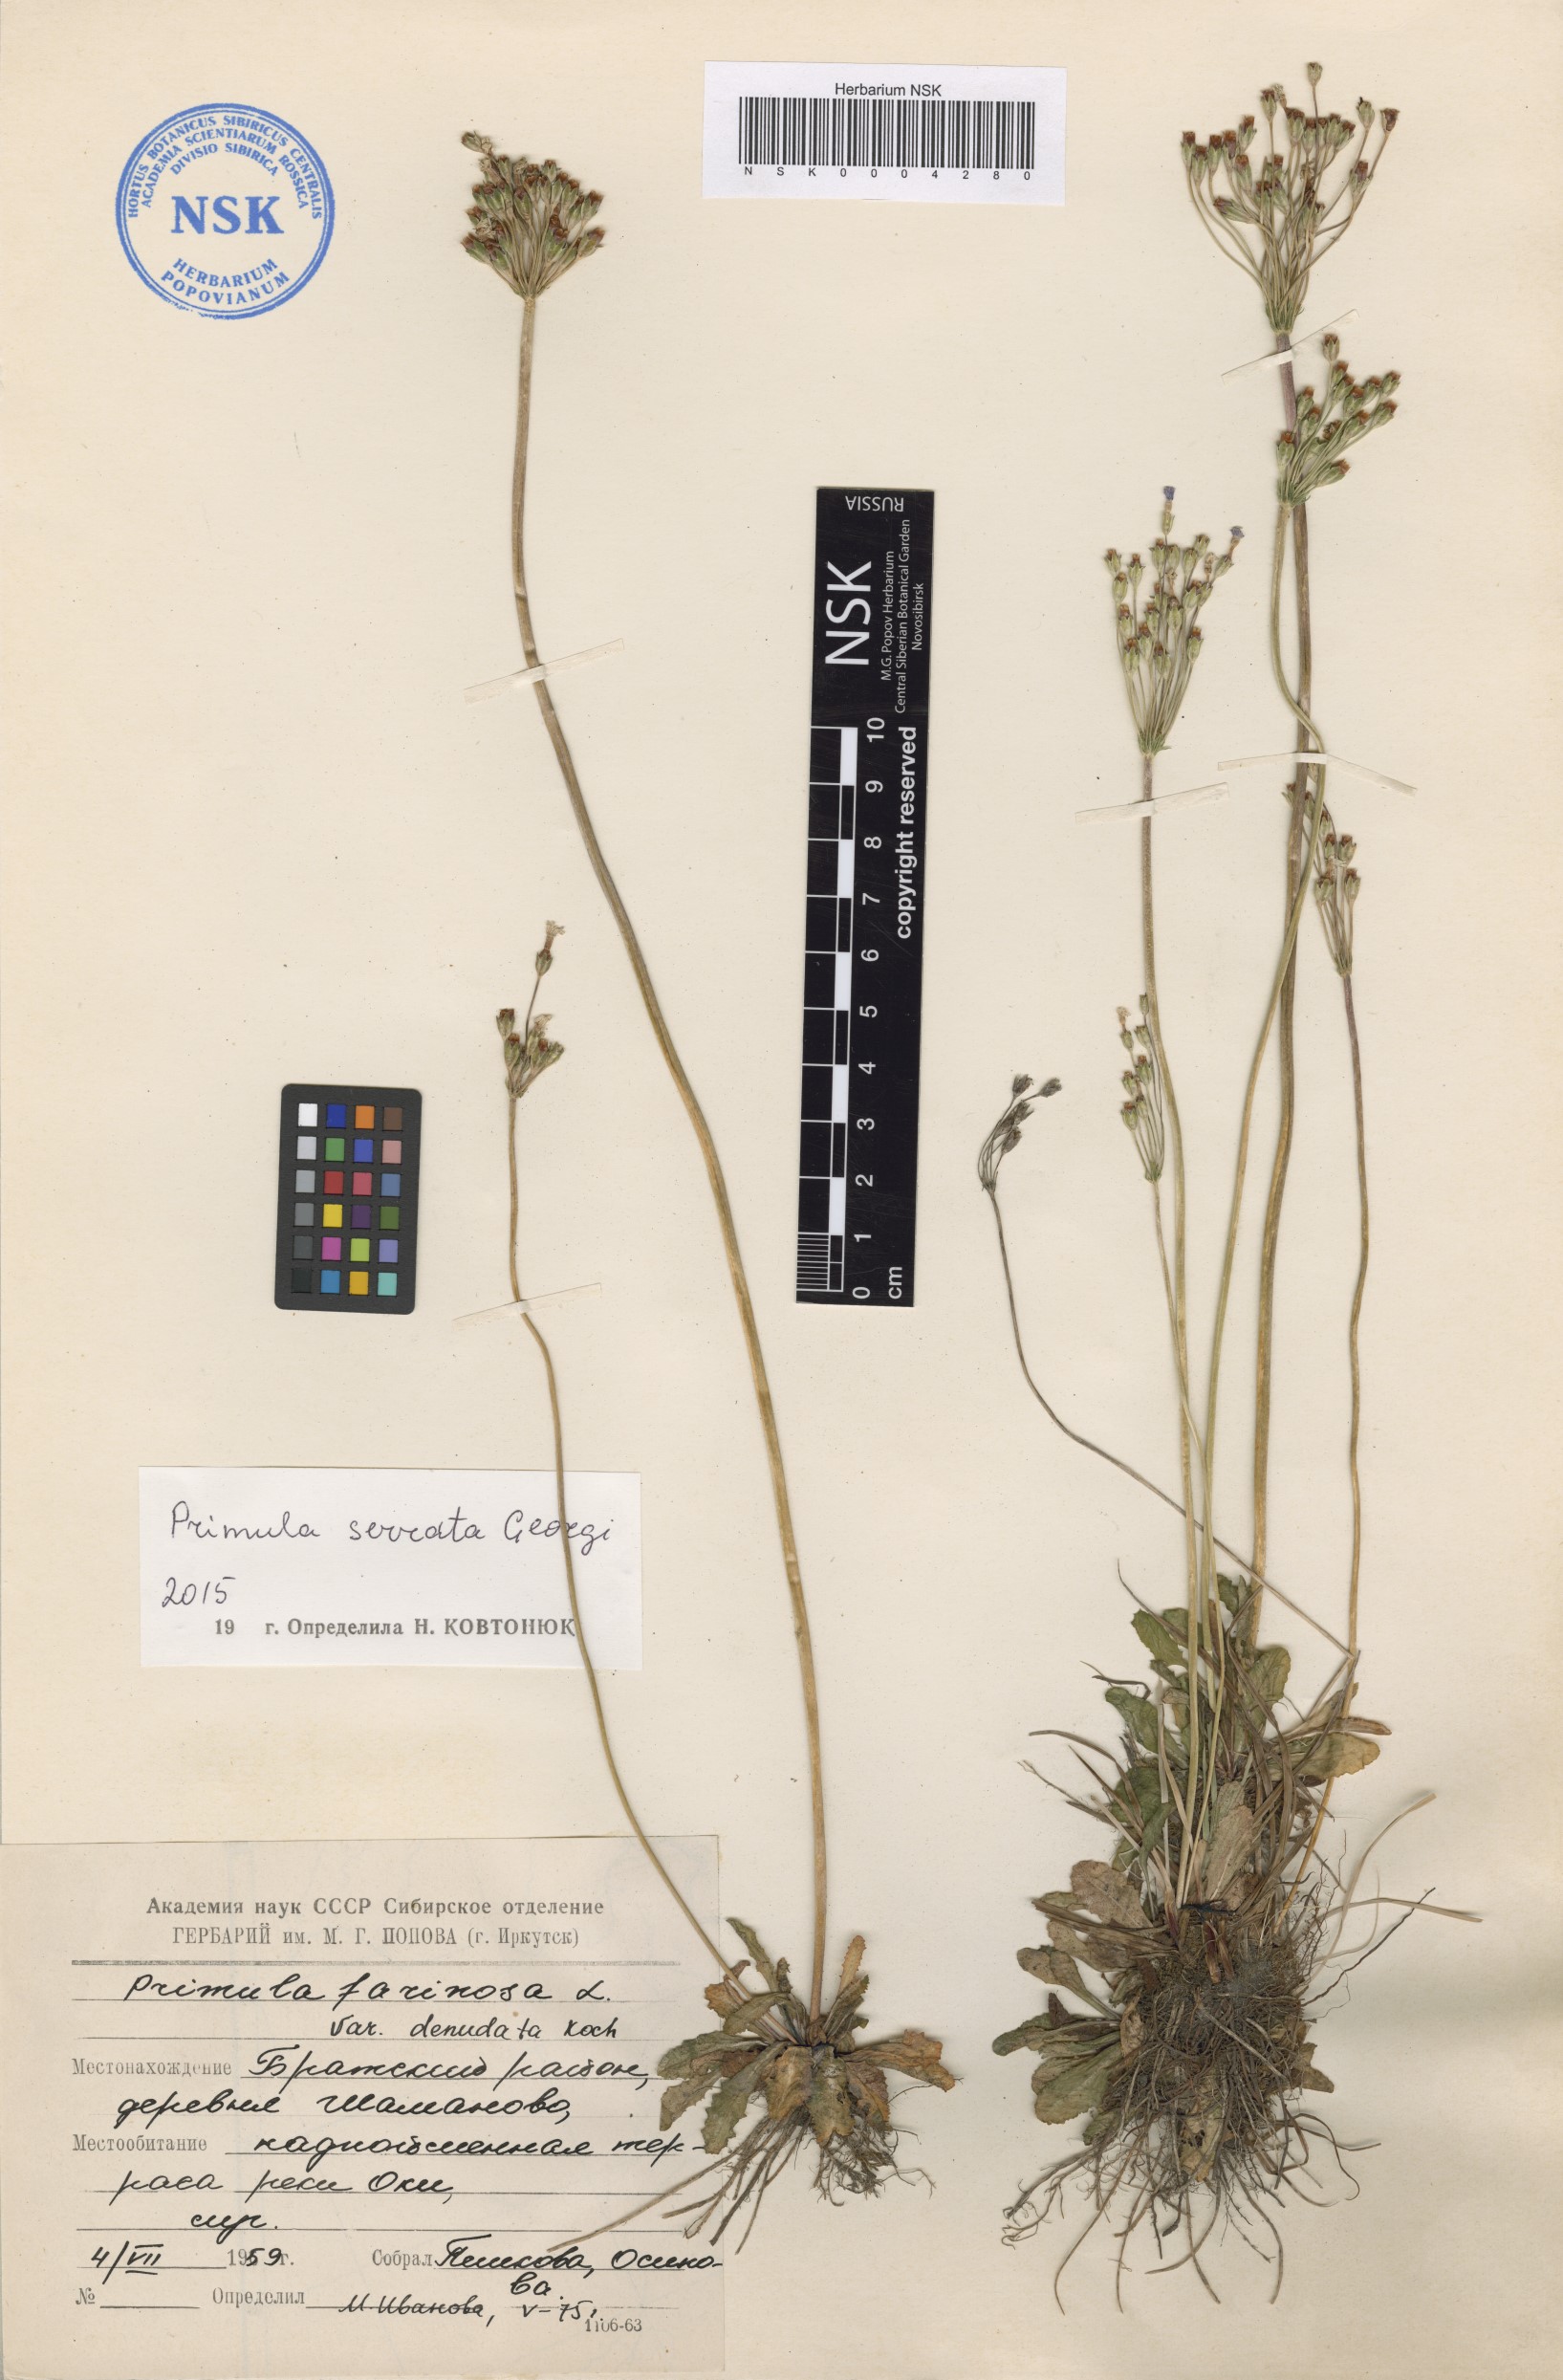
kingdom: Plantae
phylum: Tracheophyta
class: Magnoliopsida
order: Ericales
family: Primulaceae
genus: Primula
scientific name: Primula serrata
